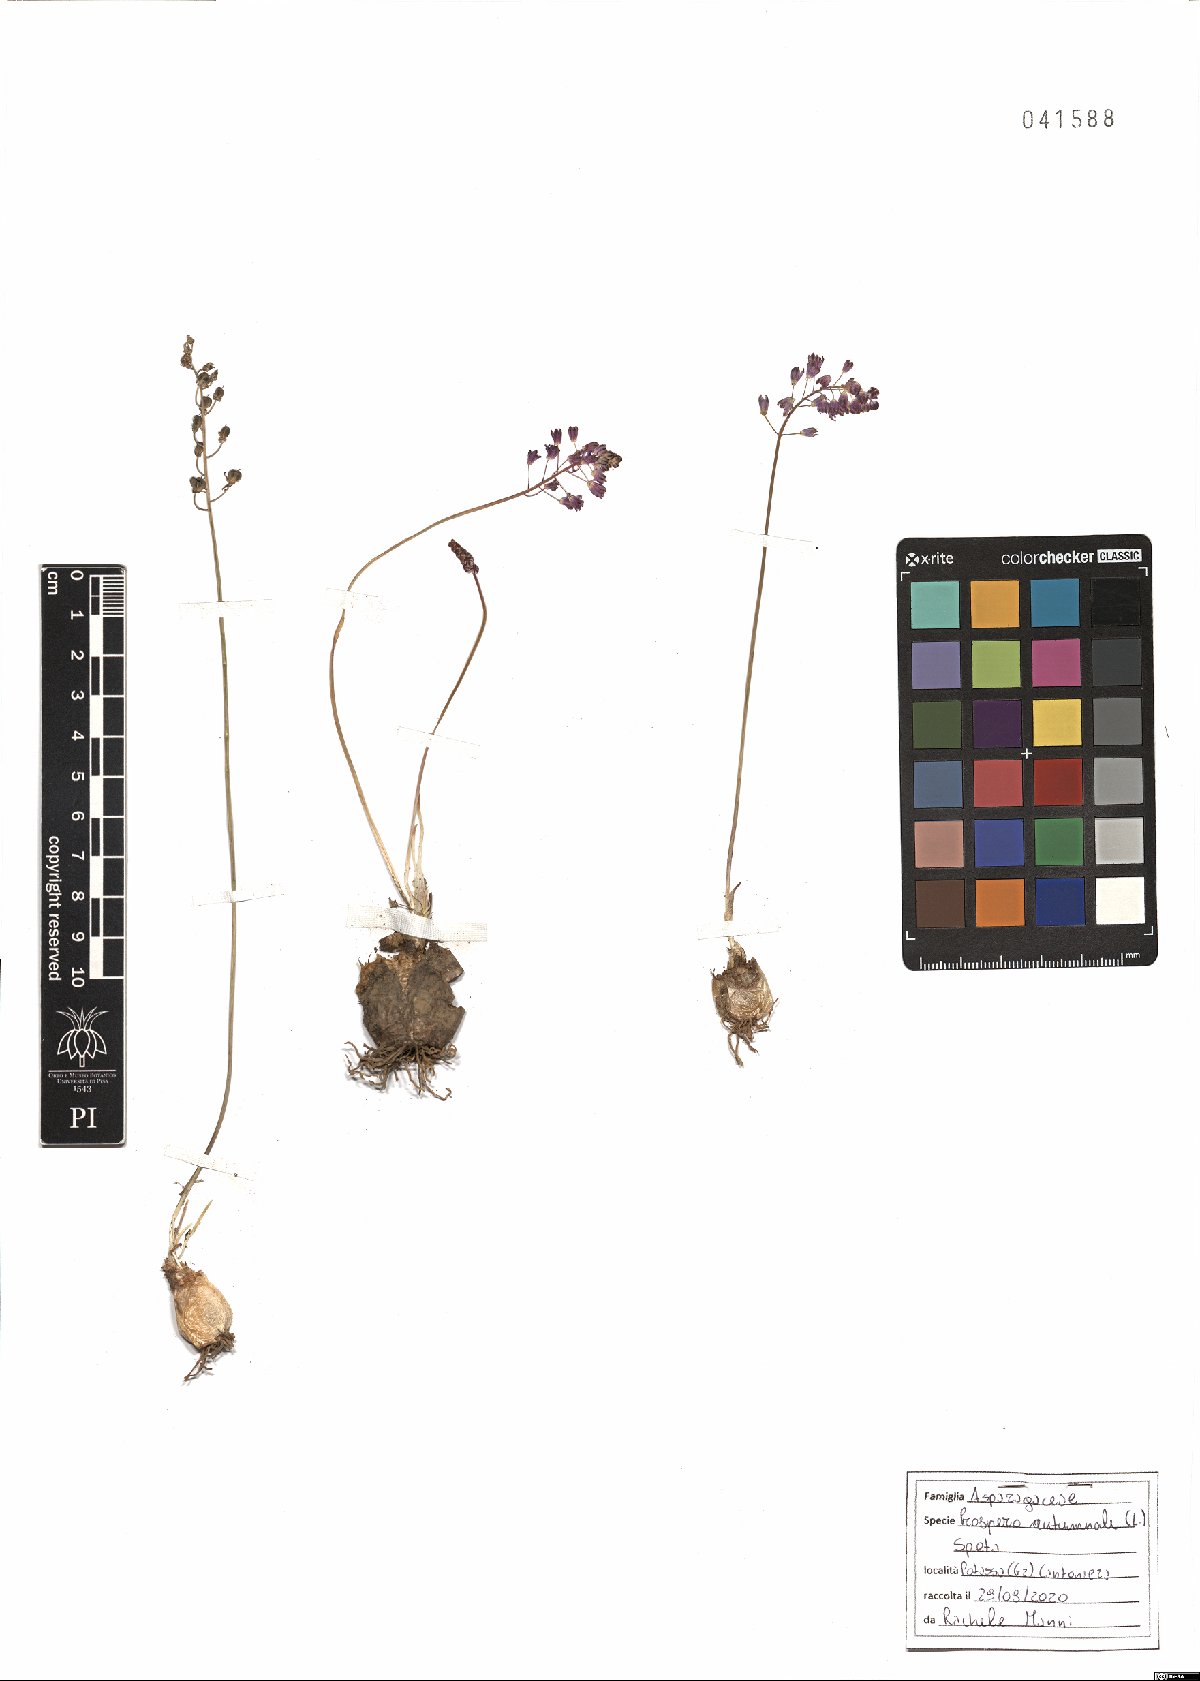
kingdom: Plantae
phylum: Tracheophyta
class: Liliopsida
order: Asparagales
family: Asparagaceae
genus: Prospero
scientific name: Prospero autumnale
